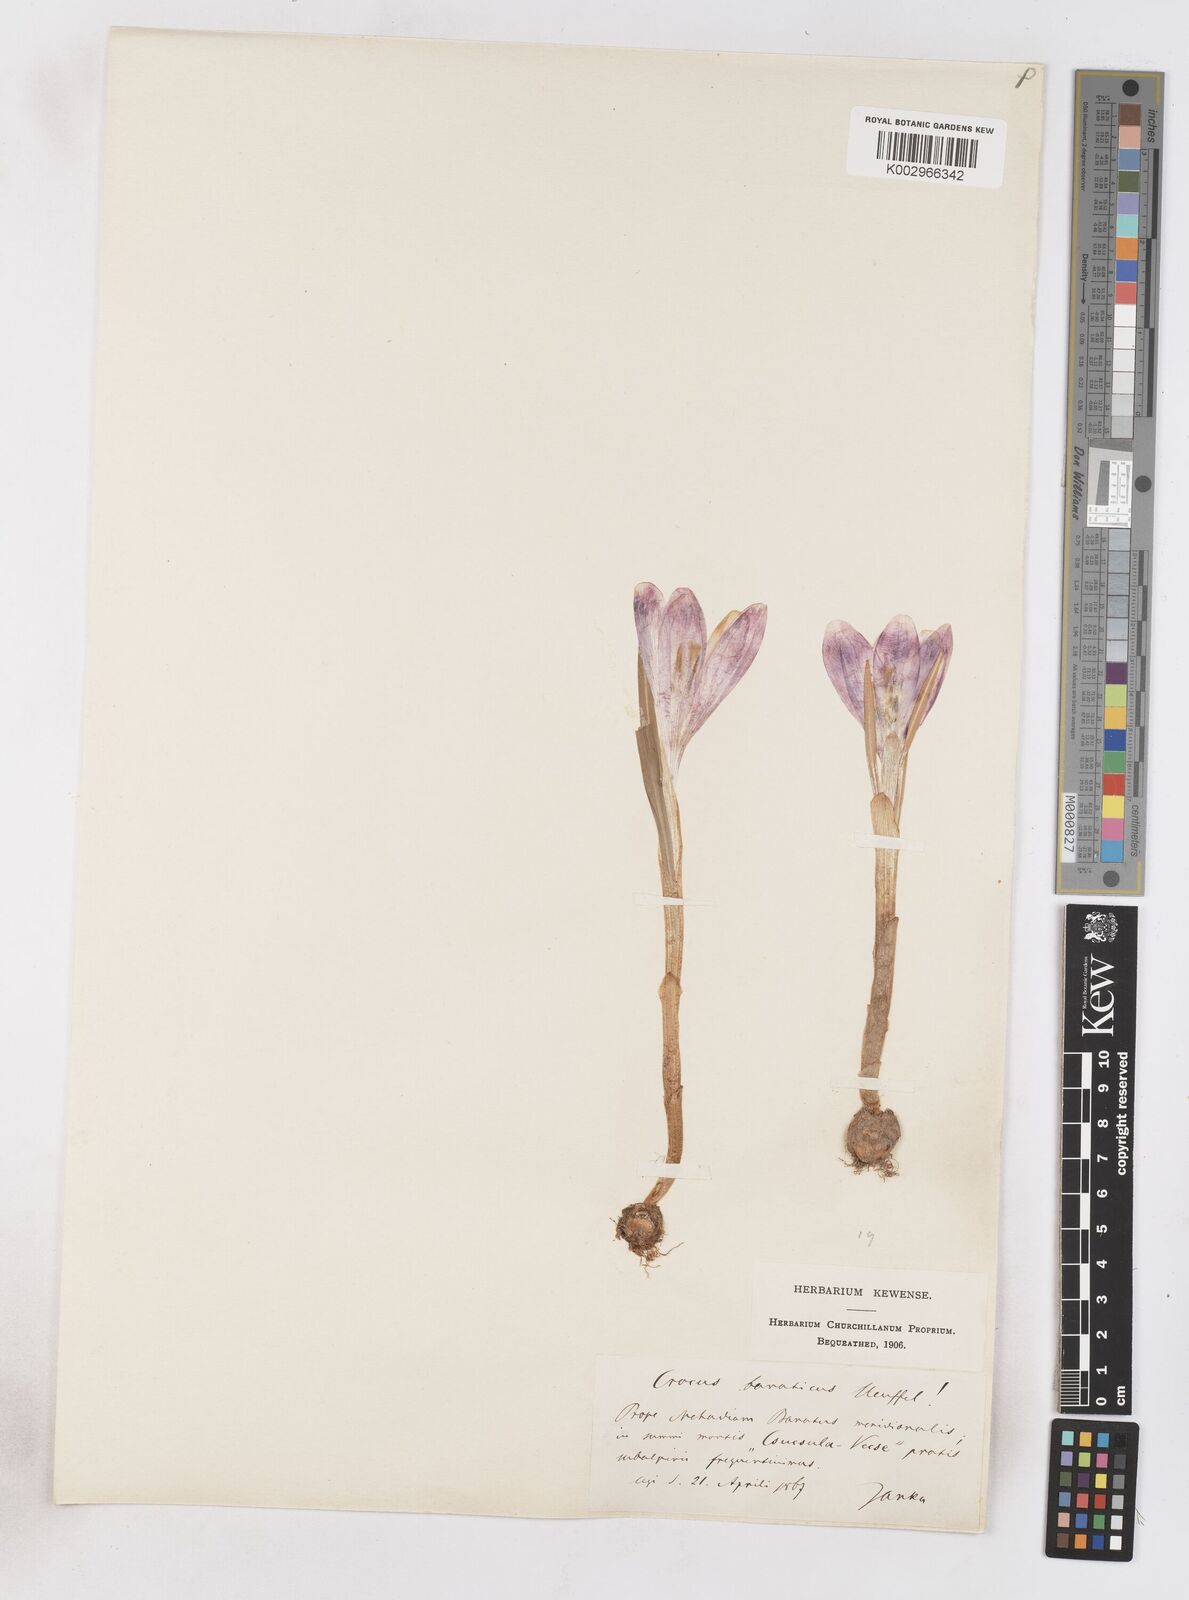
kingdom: Plantae
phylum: Tracheophyta
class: Liliopsida
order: Asparagales
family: Iridaceae
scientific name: Iridaceae
